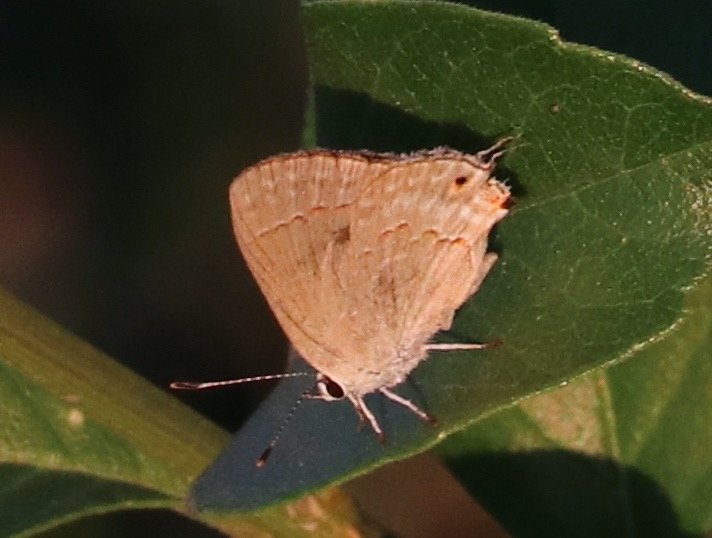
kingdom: Animalia
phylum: Arthropoda
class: Insecta
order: Lepidoptera
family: Lycaenidae
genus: Thecla
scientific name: Thecla rufofusca
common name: Red-crescent Scrub-Hairstreak
